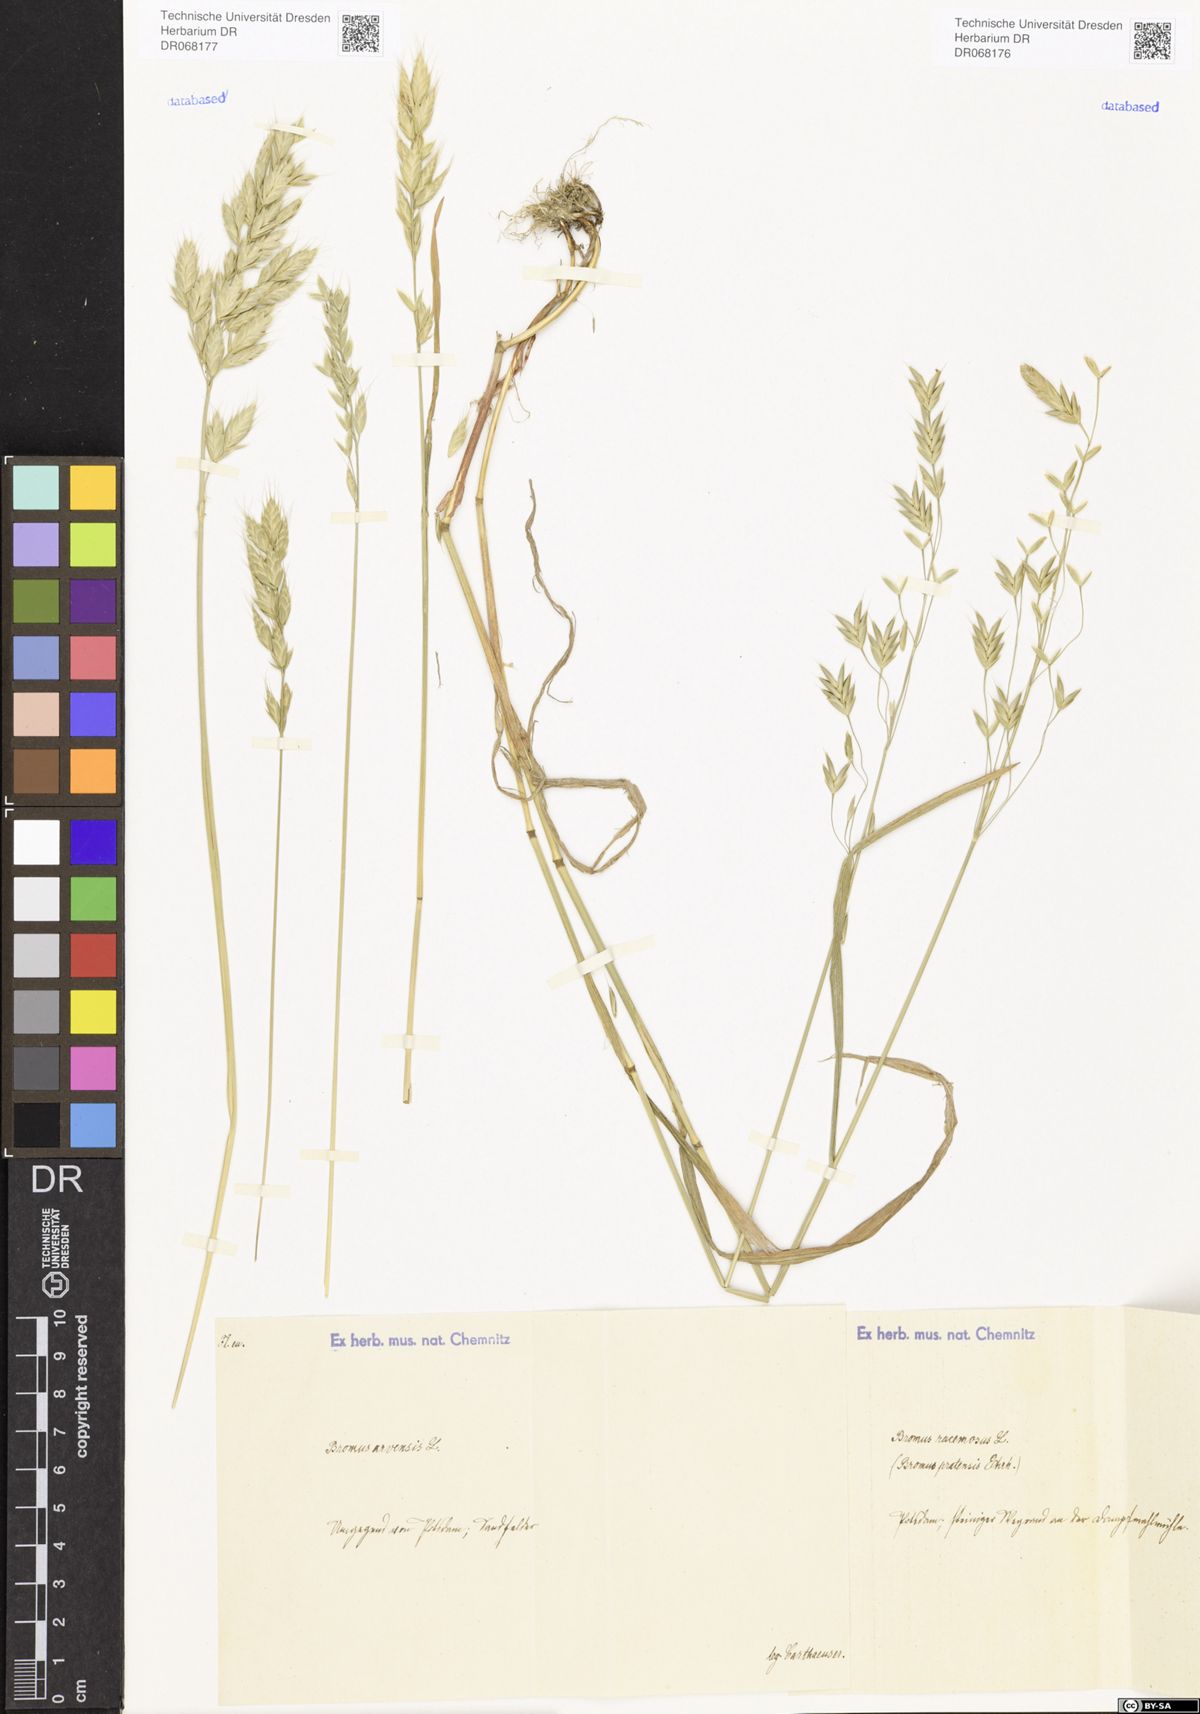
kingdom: Plantae
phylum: Tracheophyta
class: Liliopsida
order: Poales
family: Poaceae
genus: Bromus
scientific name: Bromus arvensis
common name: Field brome
